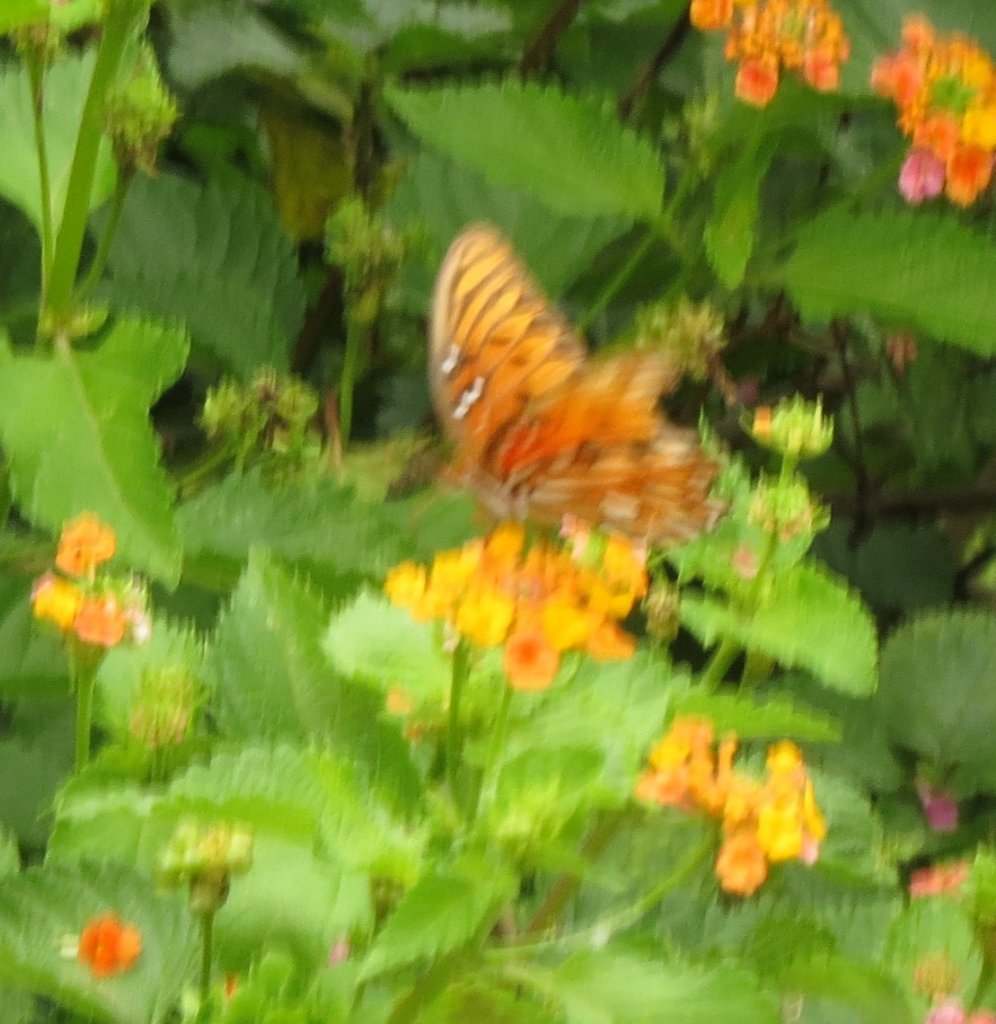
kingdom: Animalia
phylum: Arthropoda
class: Insecta
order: Lepidoptera
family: Nymphalidae
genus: Dione
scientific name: Dione vanillae
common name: Gulf Fritillary
